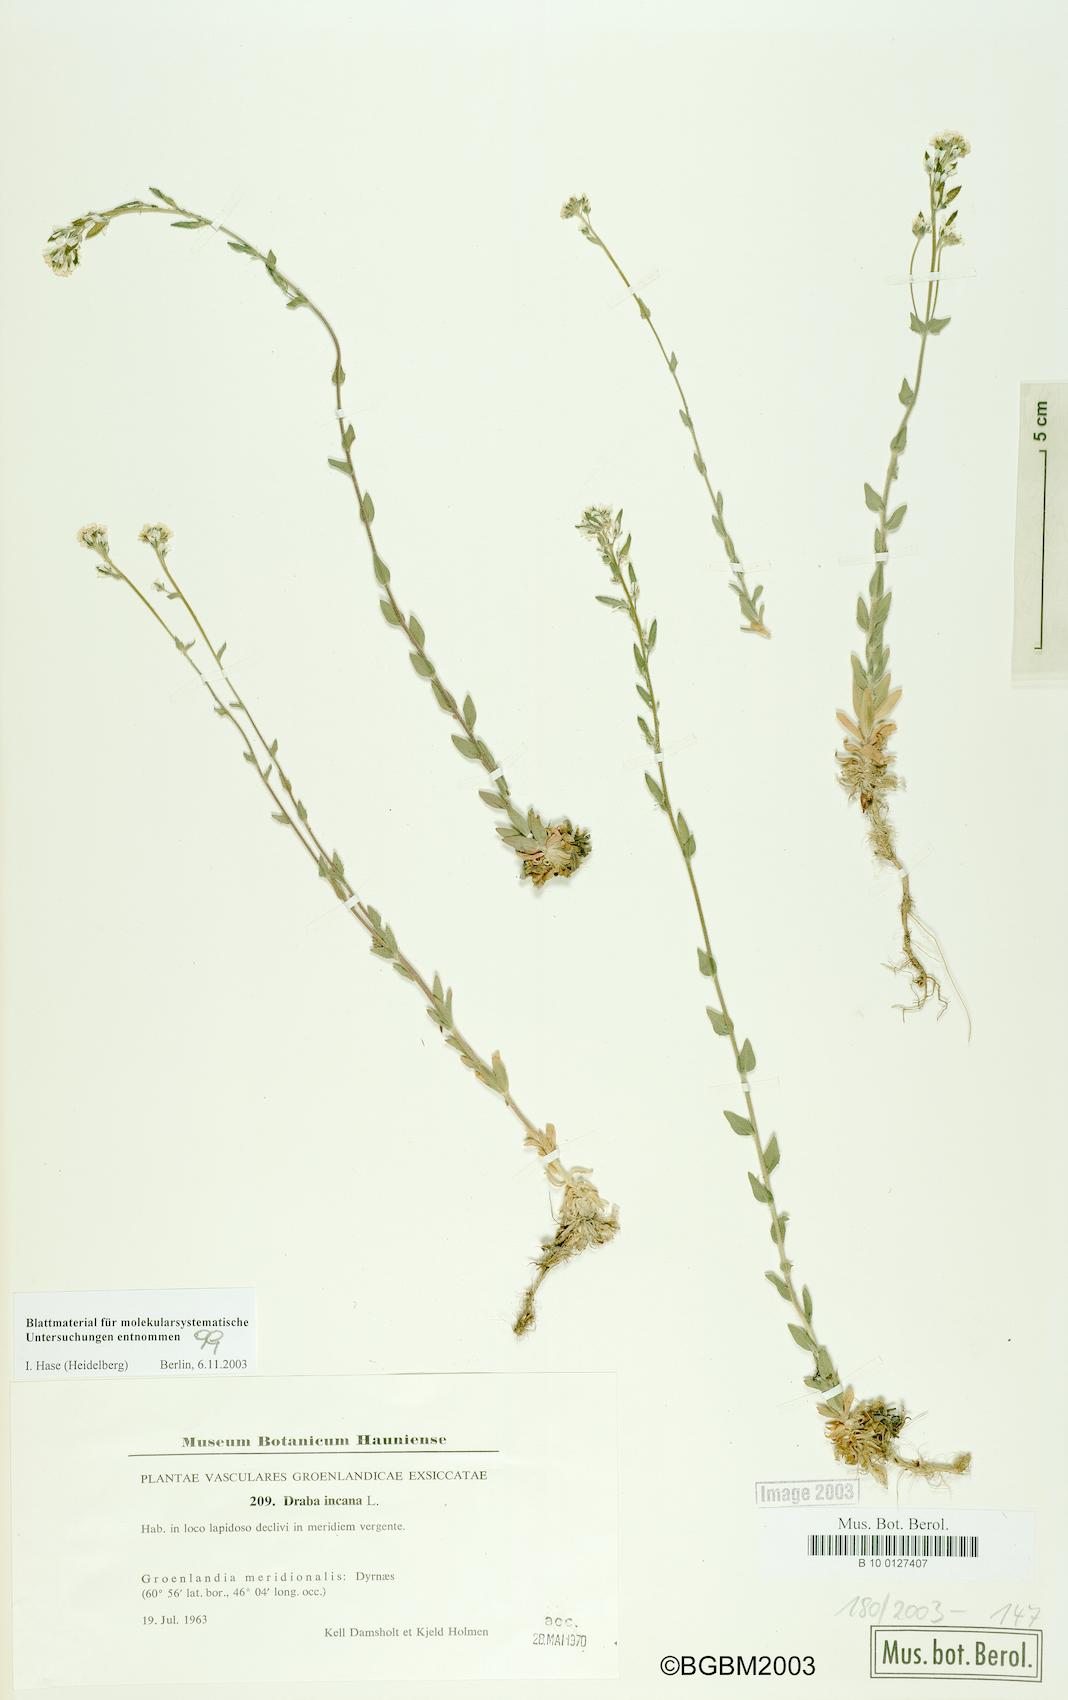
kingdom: Plantae
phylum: Tracheophyta
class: Magnoliopsida
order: Brassicales
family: Brassicaceae
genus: Draba
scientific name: Draba incana
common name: Hoary whitlow-grass
